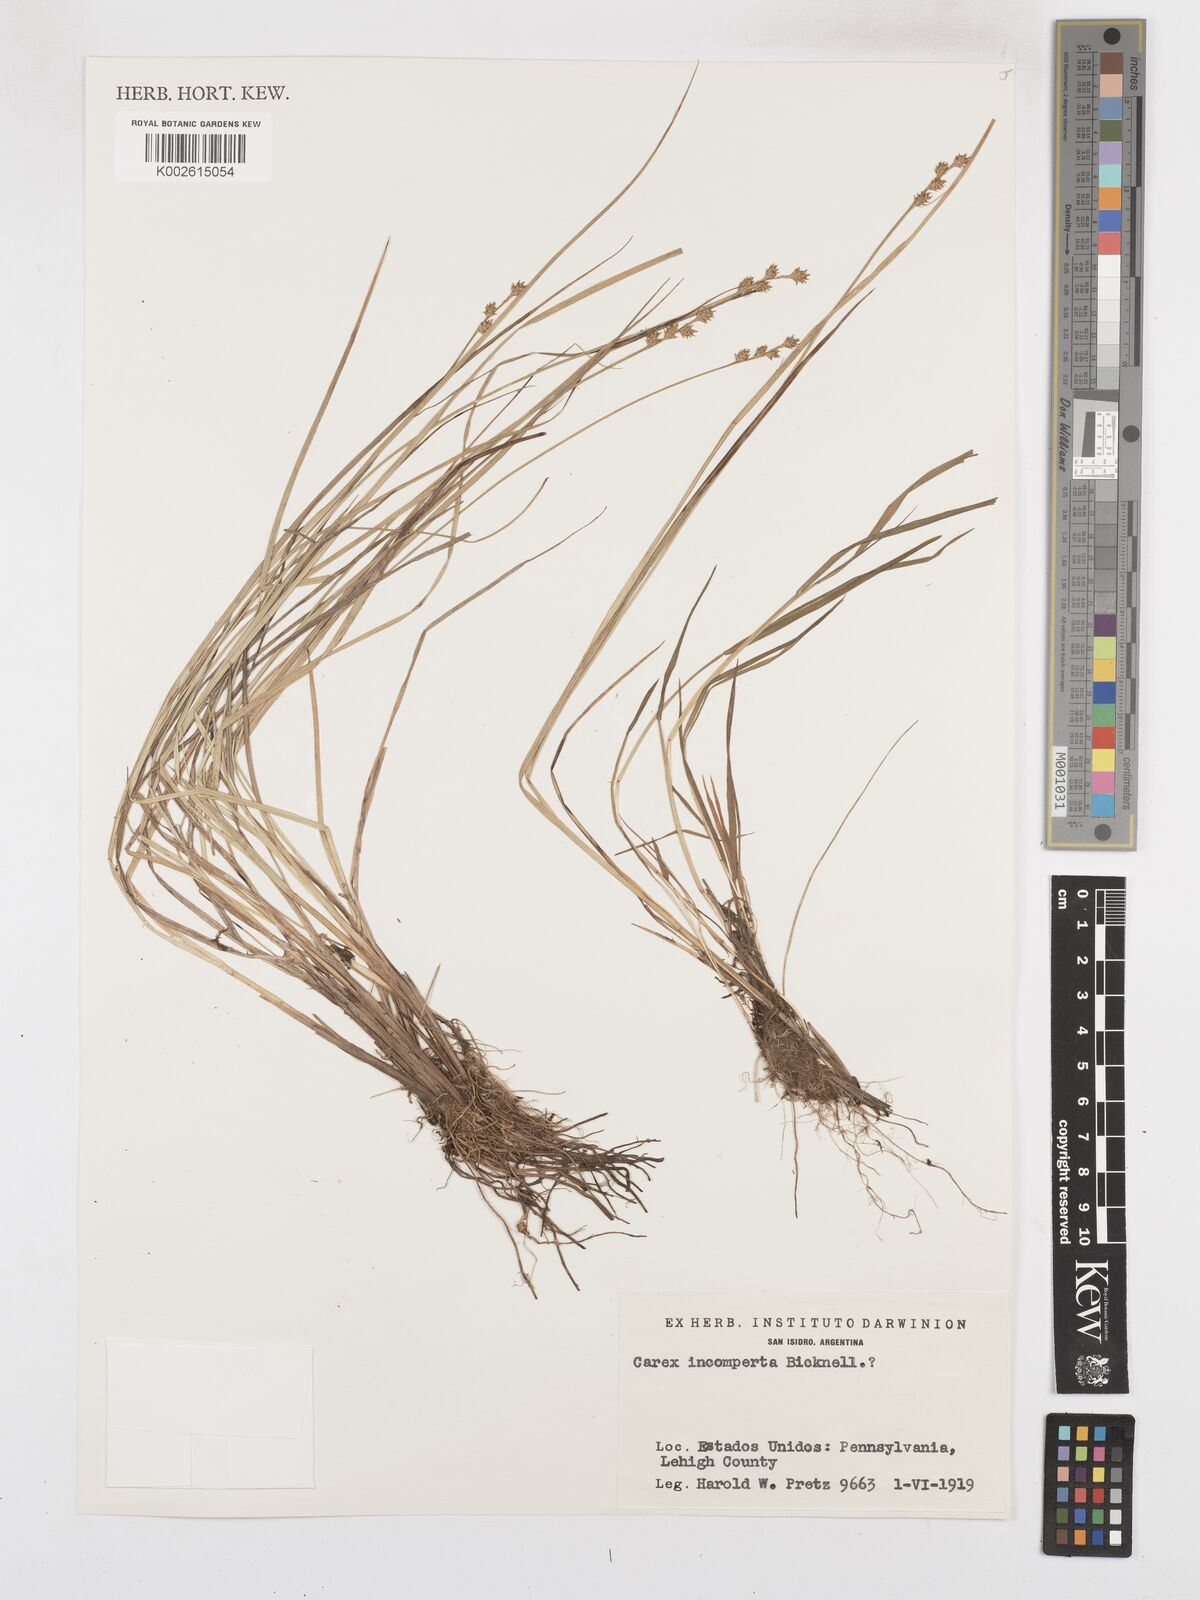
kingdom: Plantae
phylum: Tracheophyta
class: Liliopsida
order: Poales
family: Cyperaceae
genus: Carex
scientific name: Carex atlantica
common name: Atlantic sedge
